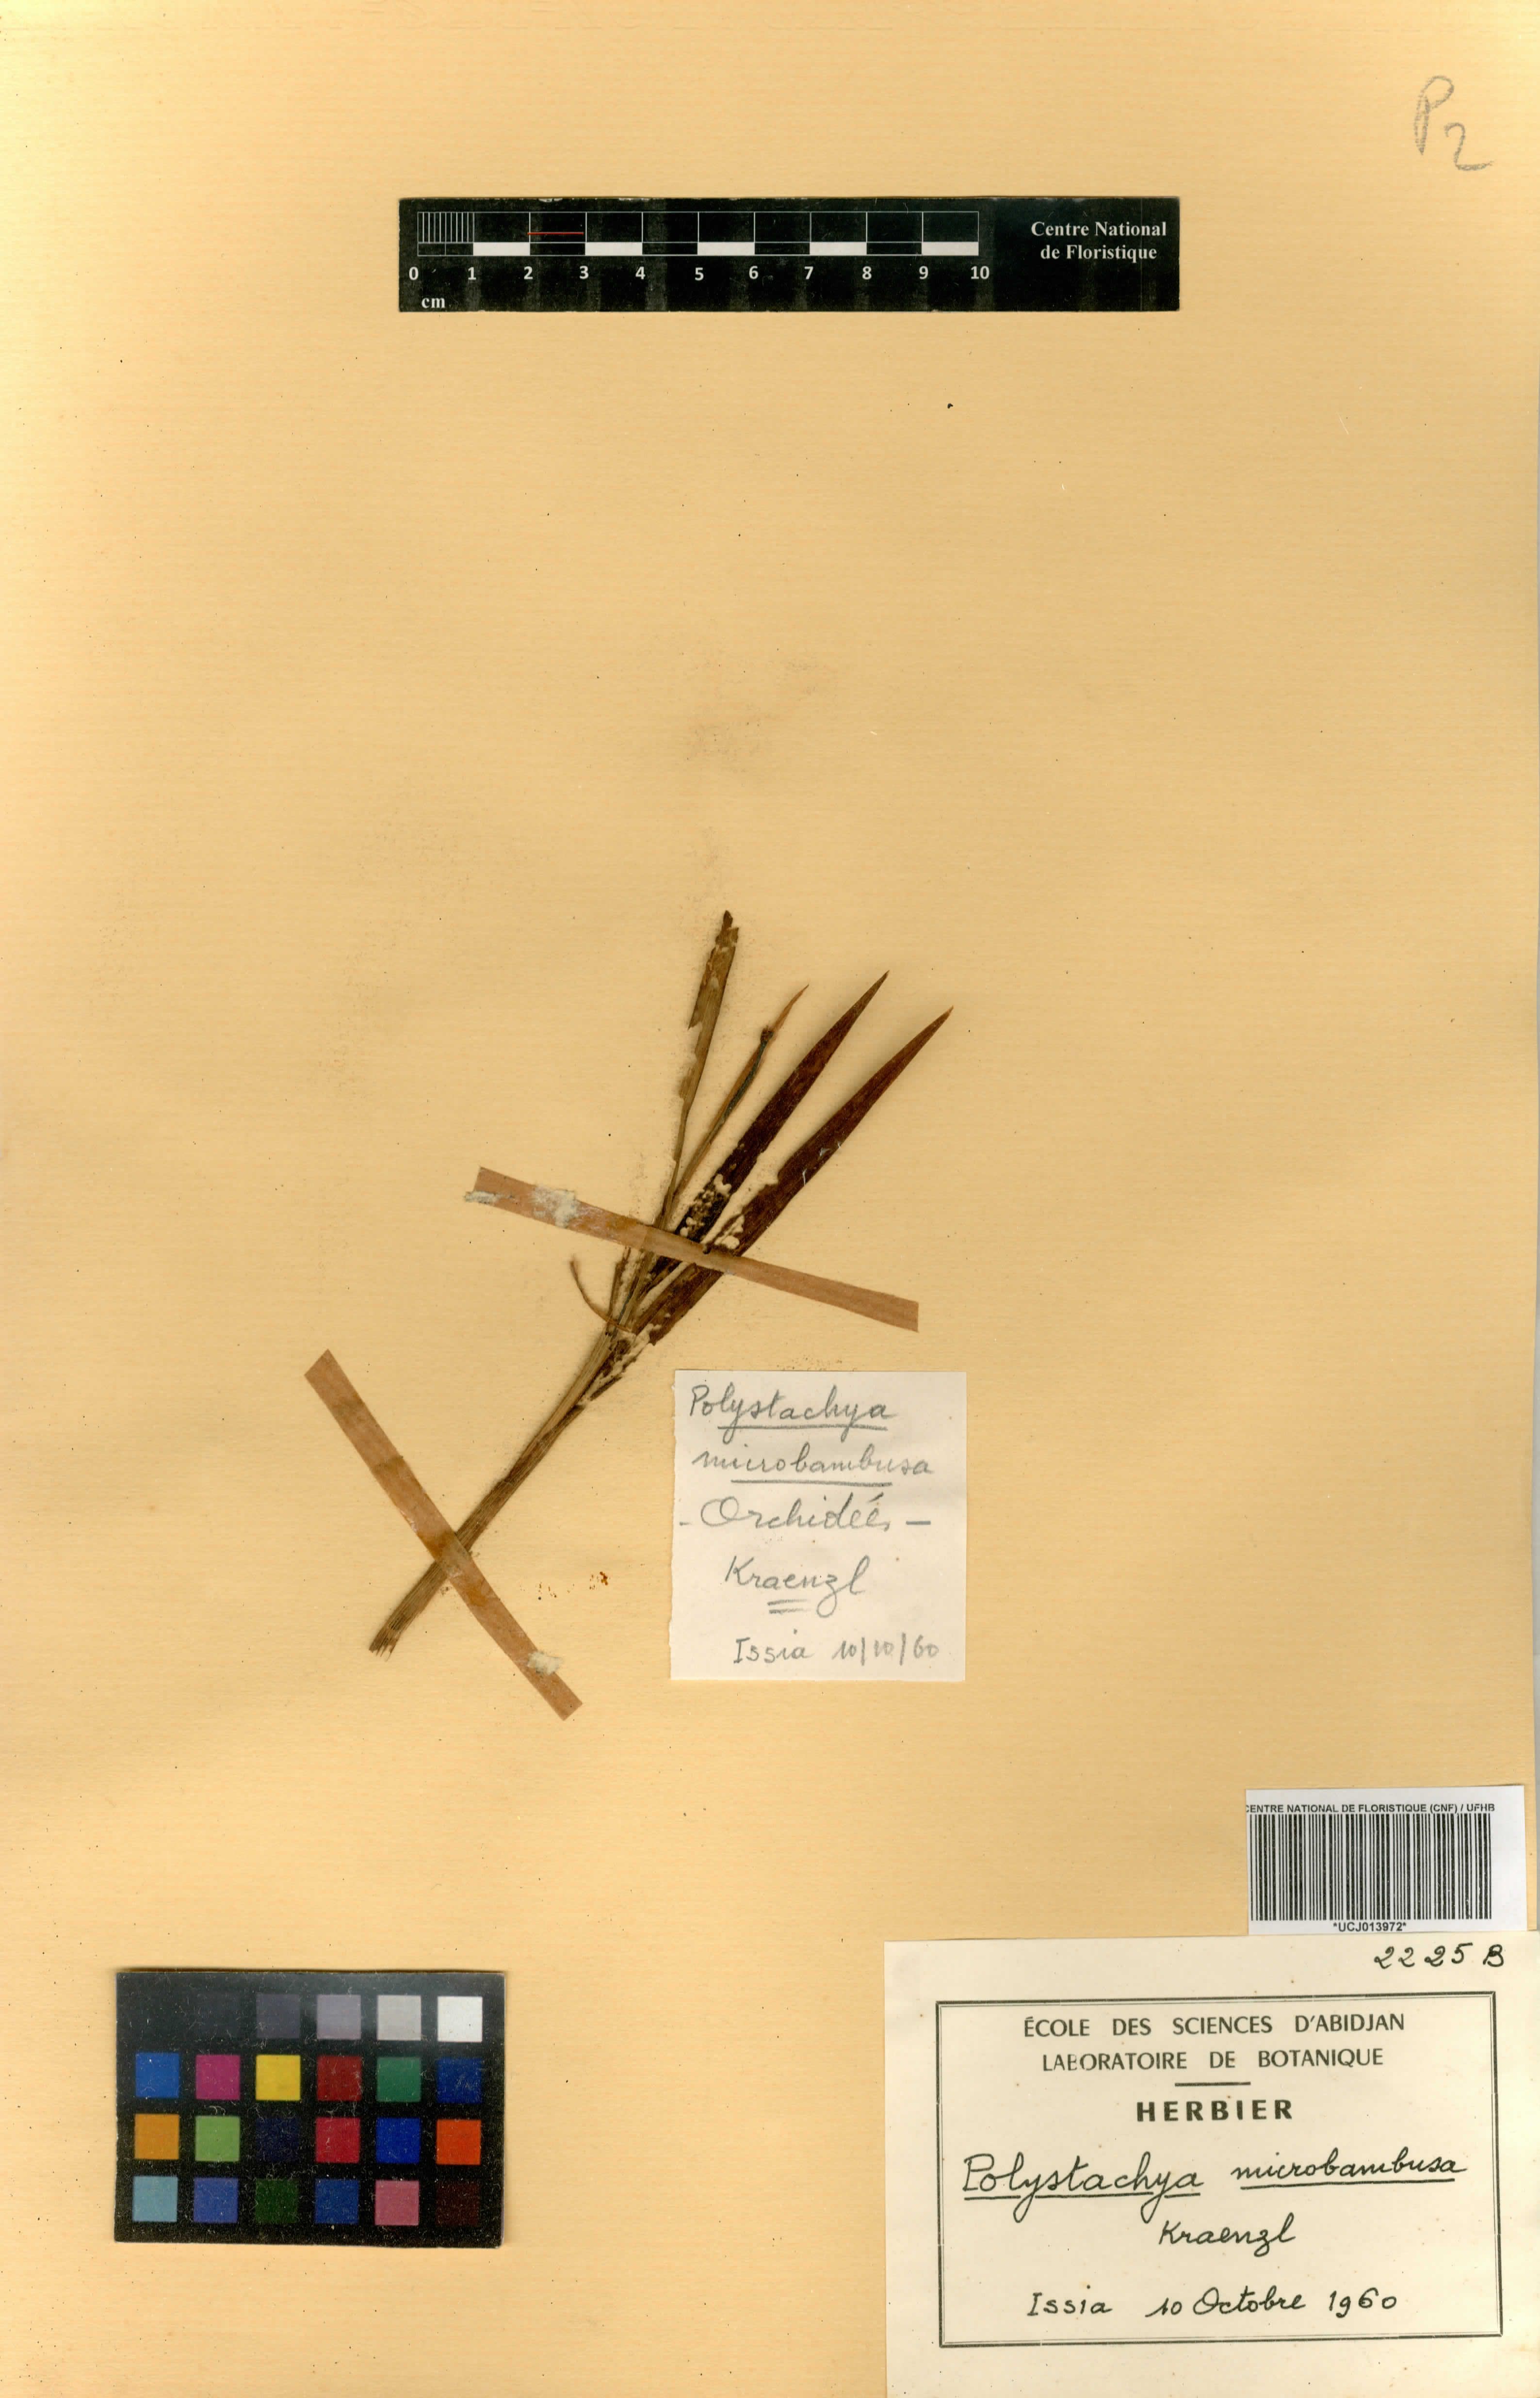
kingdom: Plantae
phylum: Tracheophyta
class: Liliopsida
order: Asparagales
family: Orchidaceae
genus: Polystachya
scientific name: Polystachya microbambusa
